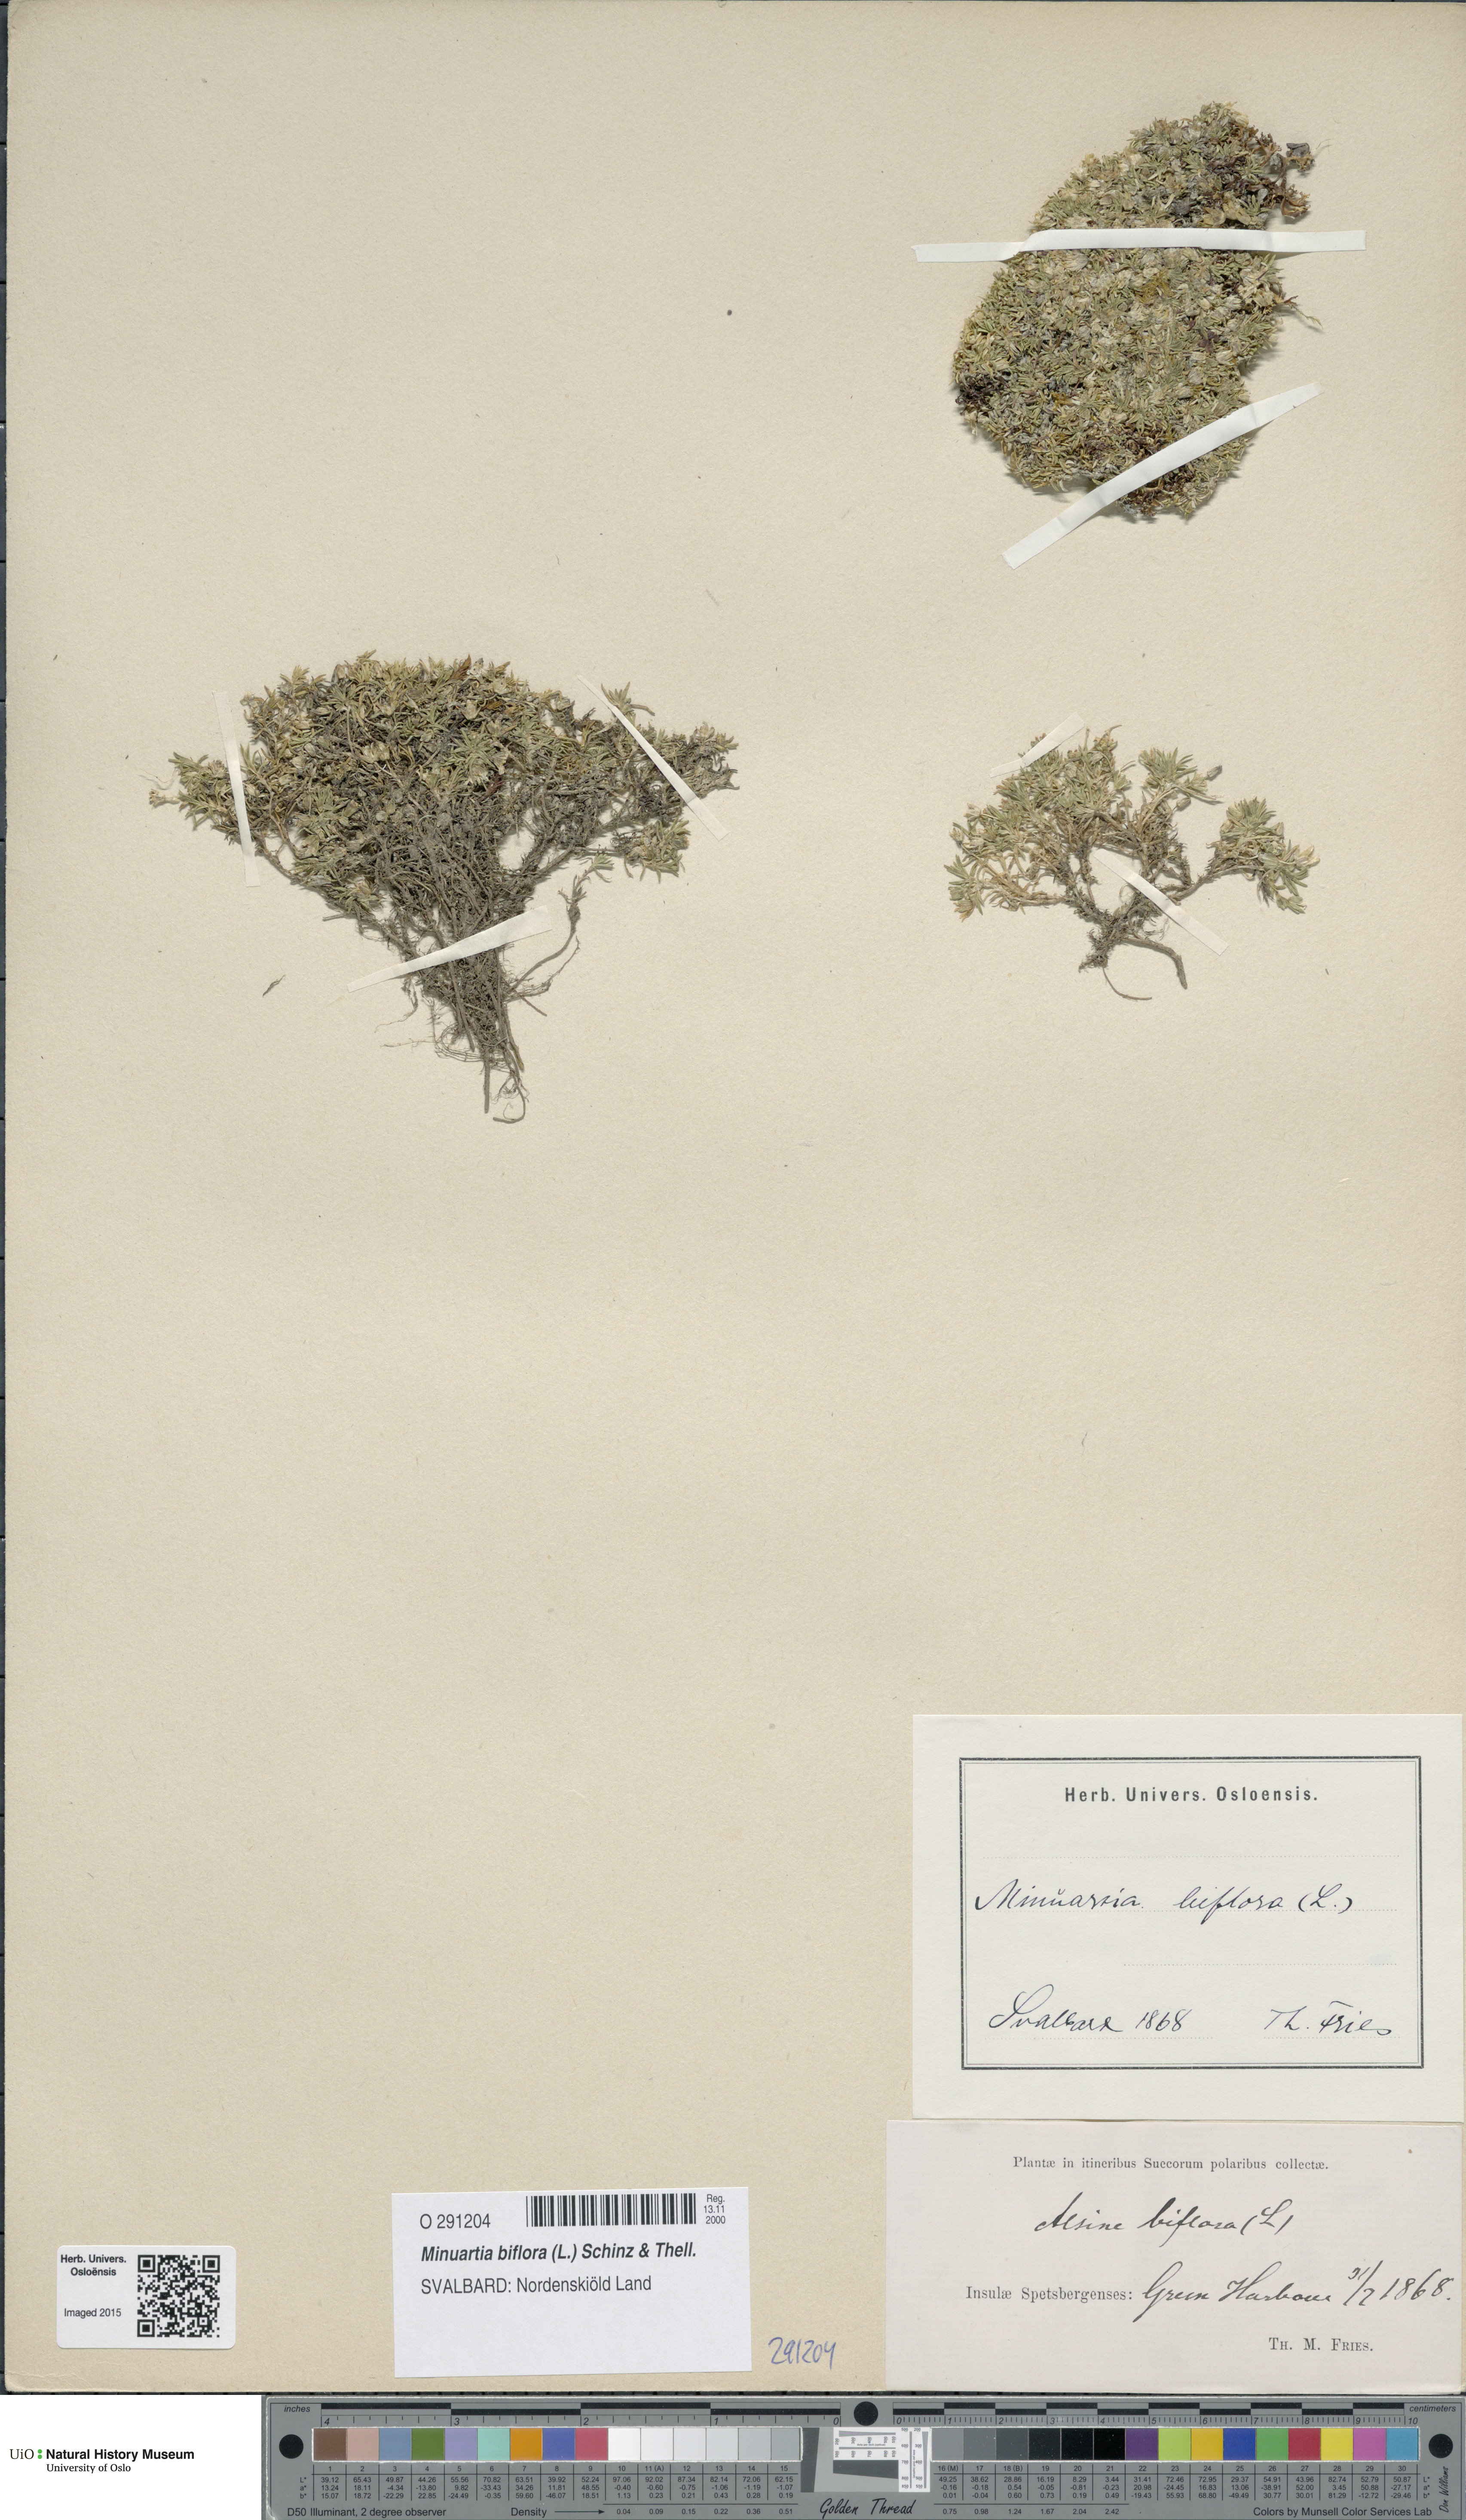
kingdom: Plantae
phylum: Tracheophyta
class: Magnoliopsida
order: Caryophyllales
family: Caryophyllaceae
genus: Cherleria
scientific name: Cherleria biflora
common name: Mountain sandwort
